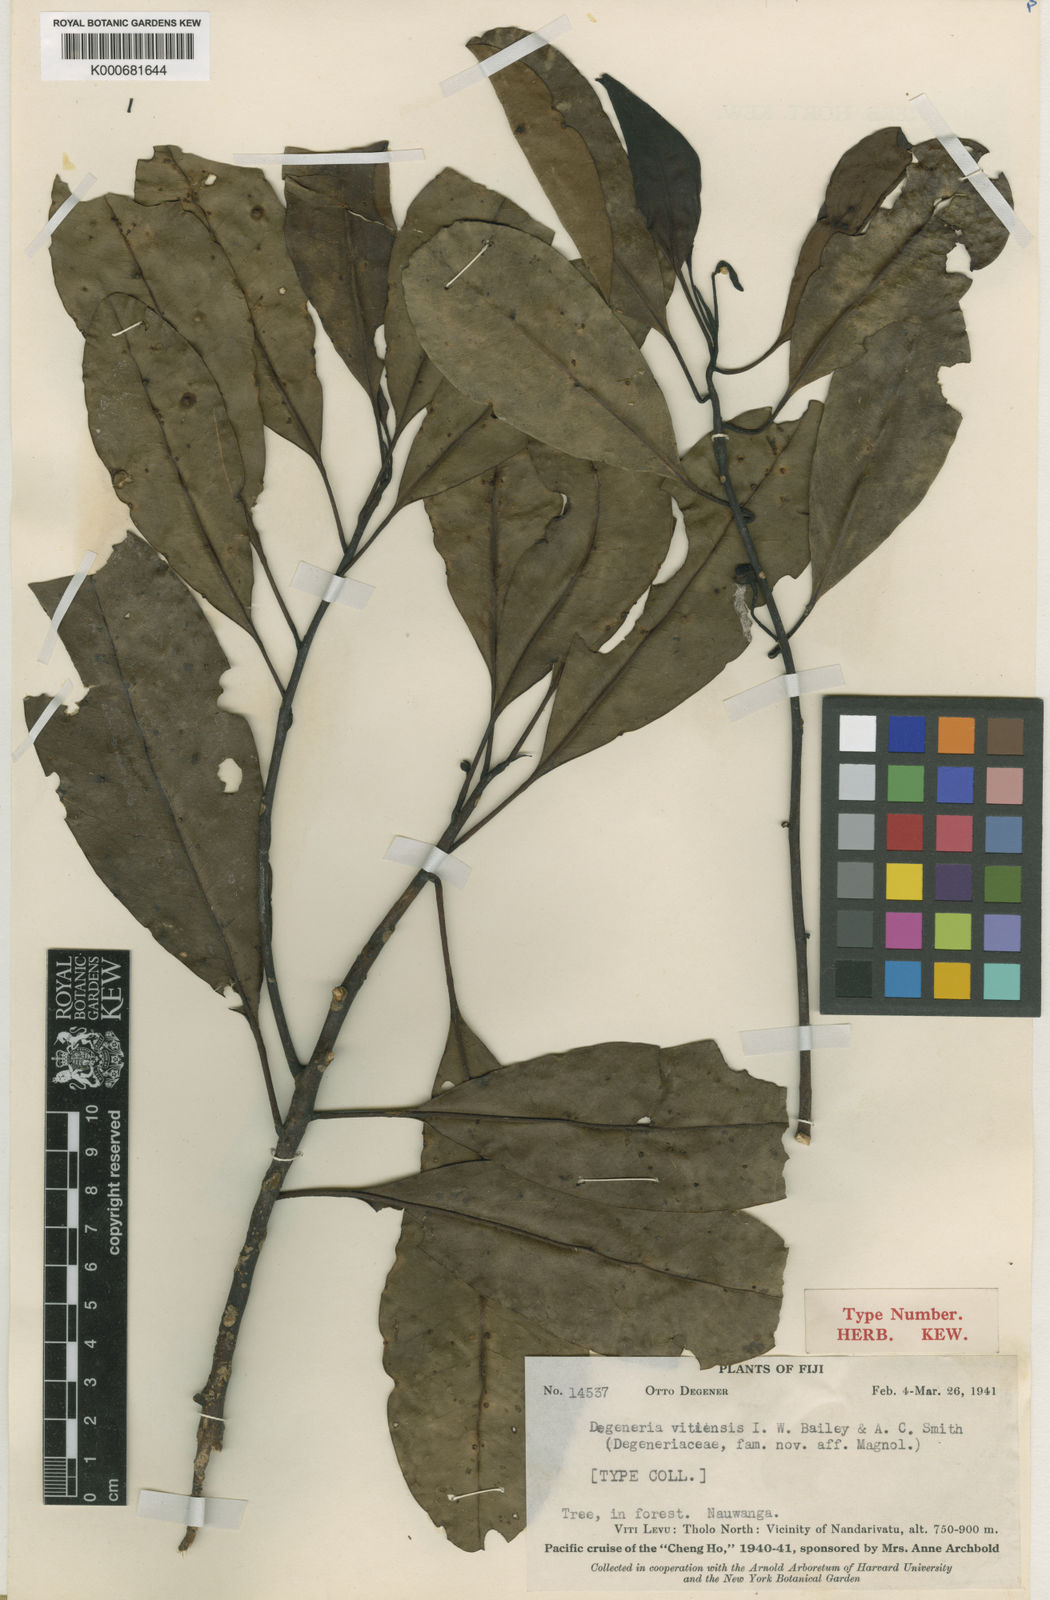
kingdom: Plantae
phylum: Tracheophyta
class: Magnoliopsida
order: Magnoliales
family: Degeneriaceae
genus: Degeneria
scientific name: Degeneria vitiensis
